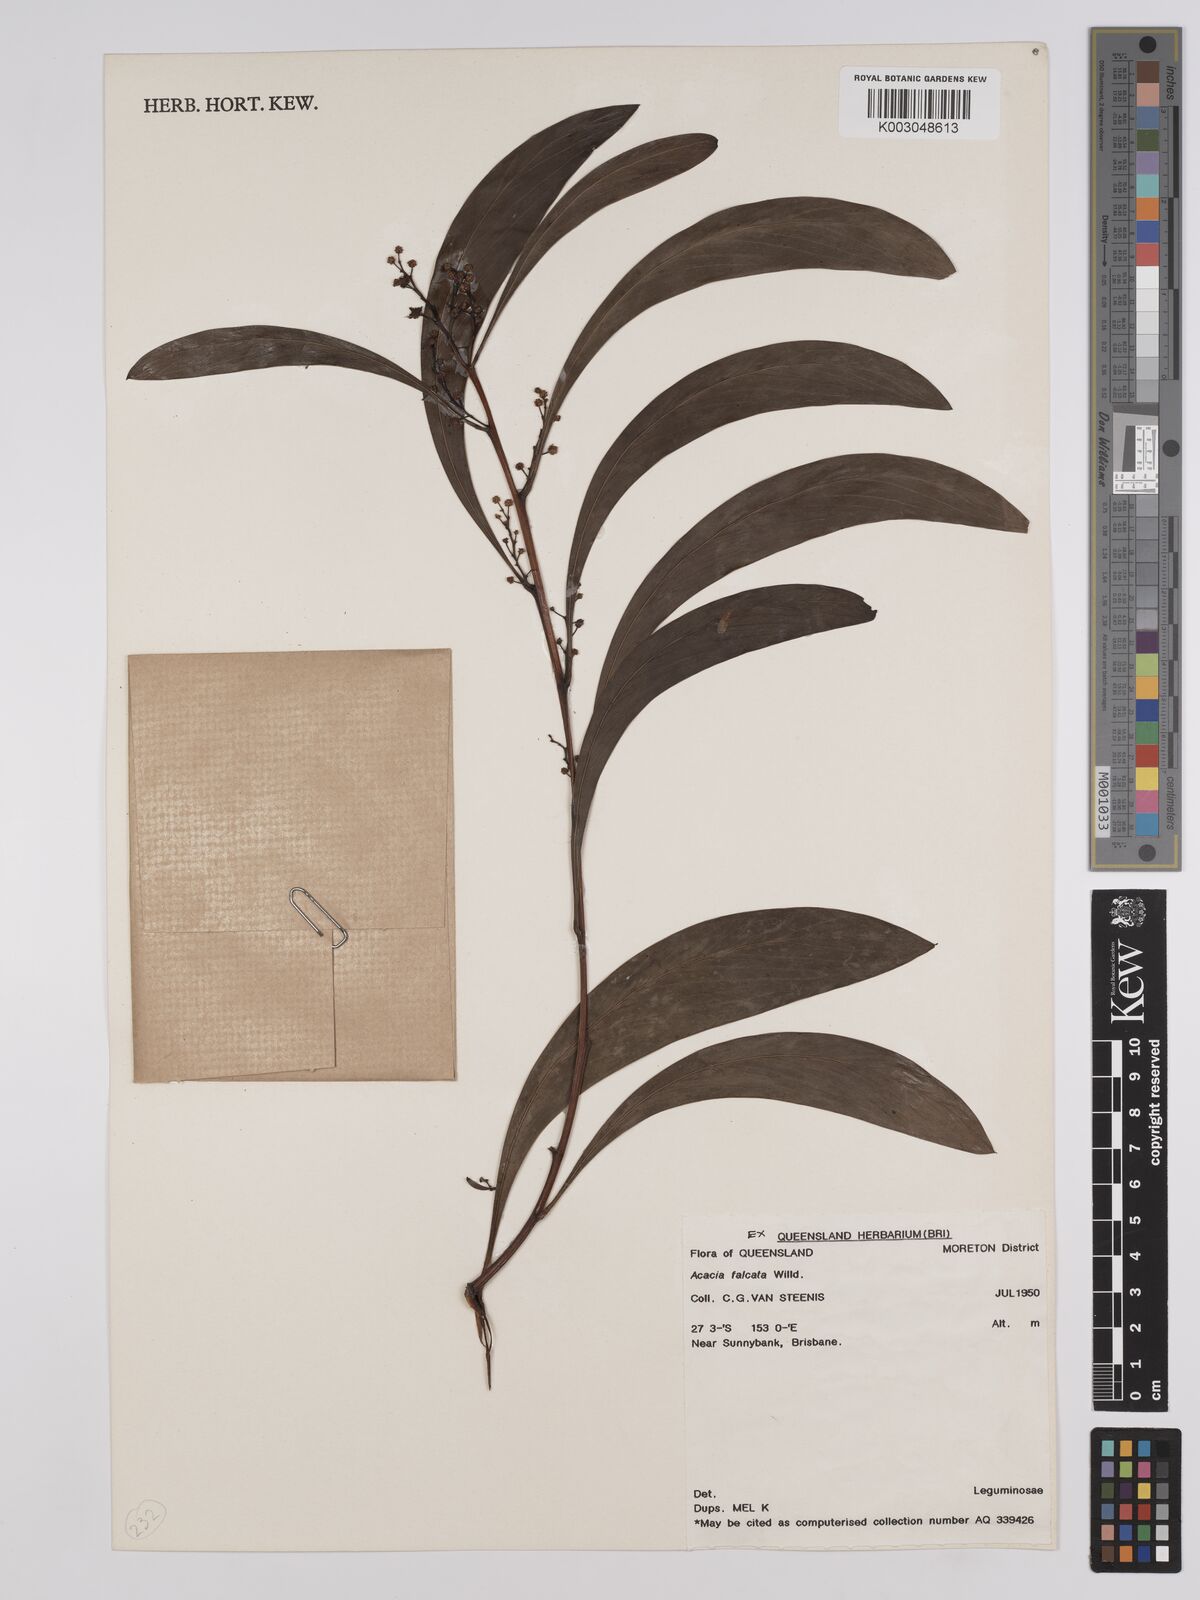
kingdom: Plantae
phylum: Tracheophyta
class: Magnoliopsida
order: Fabales
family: Fabaceae
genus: Acacia
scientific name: Acacia falcata
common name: Burra acacia
